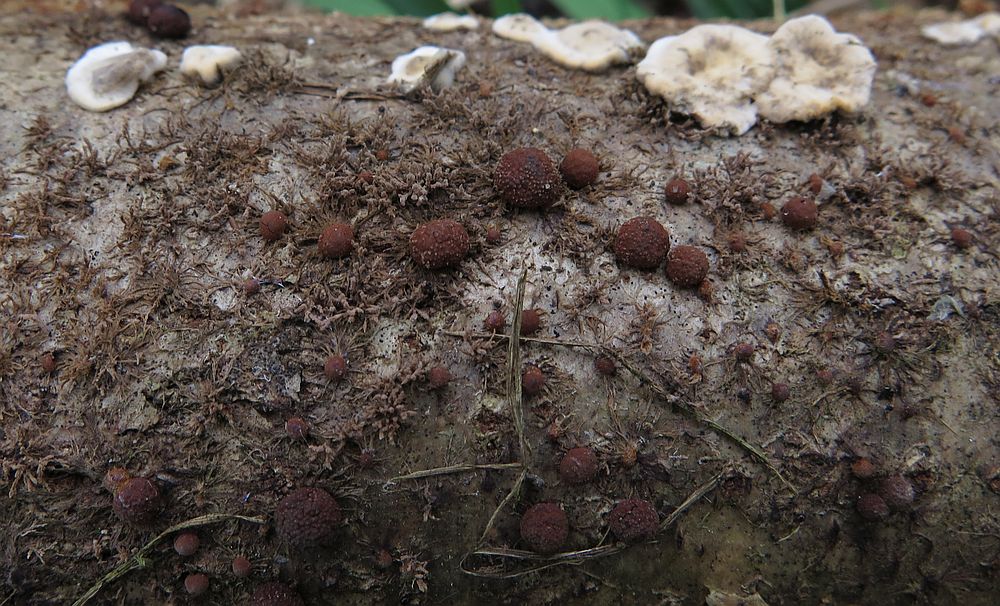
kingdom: Fungi
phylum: Ascomycota
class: Sordariomycetes
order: Xylariales
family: Hypoxylaceae
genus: Hypoxylon
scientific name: Hypoxylon howeanum
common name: halvkugleformet kulbær
